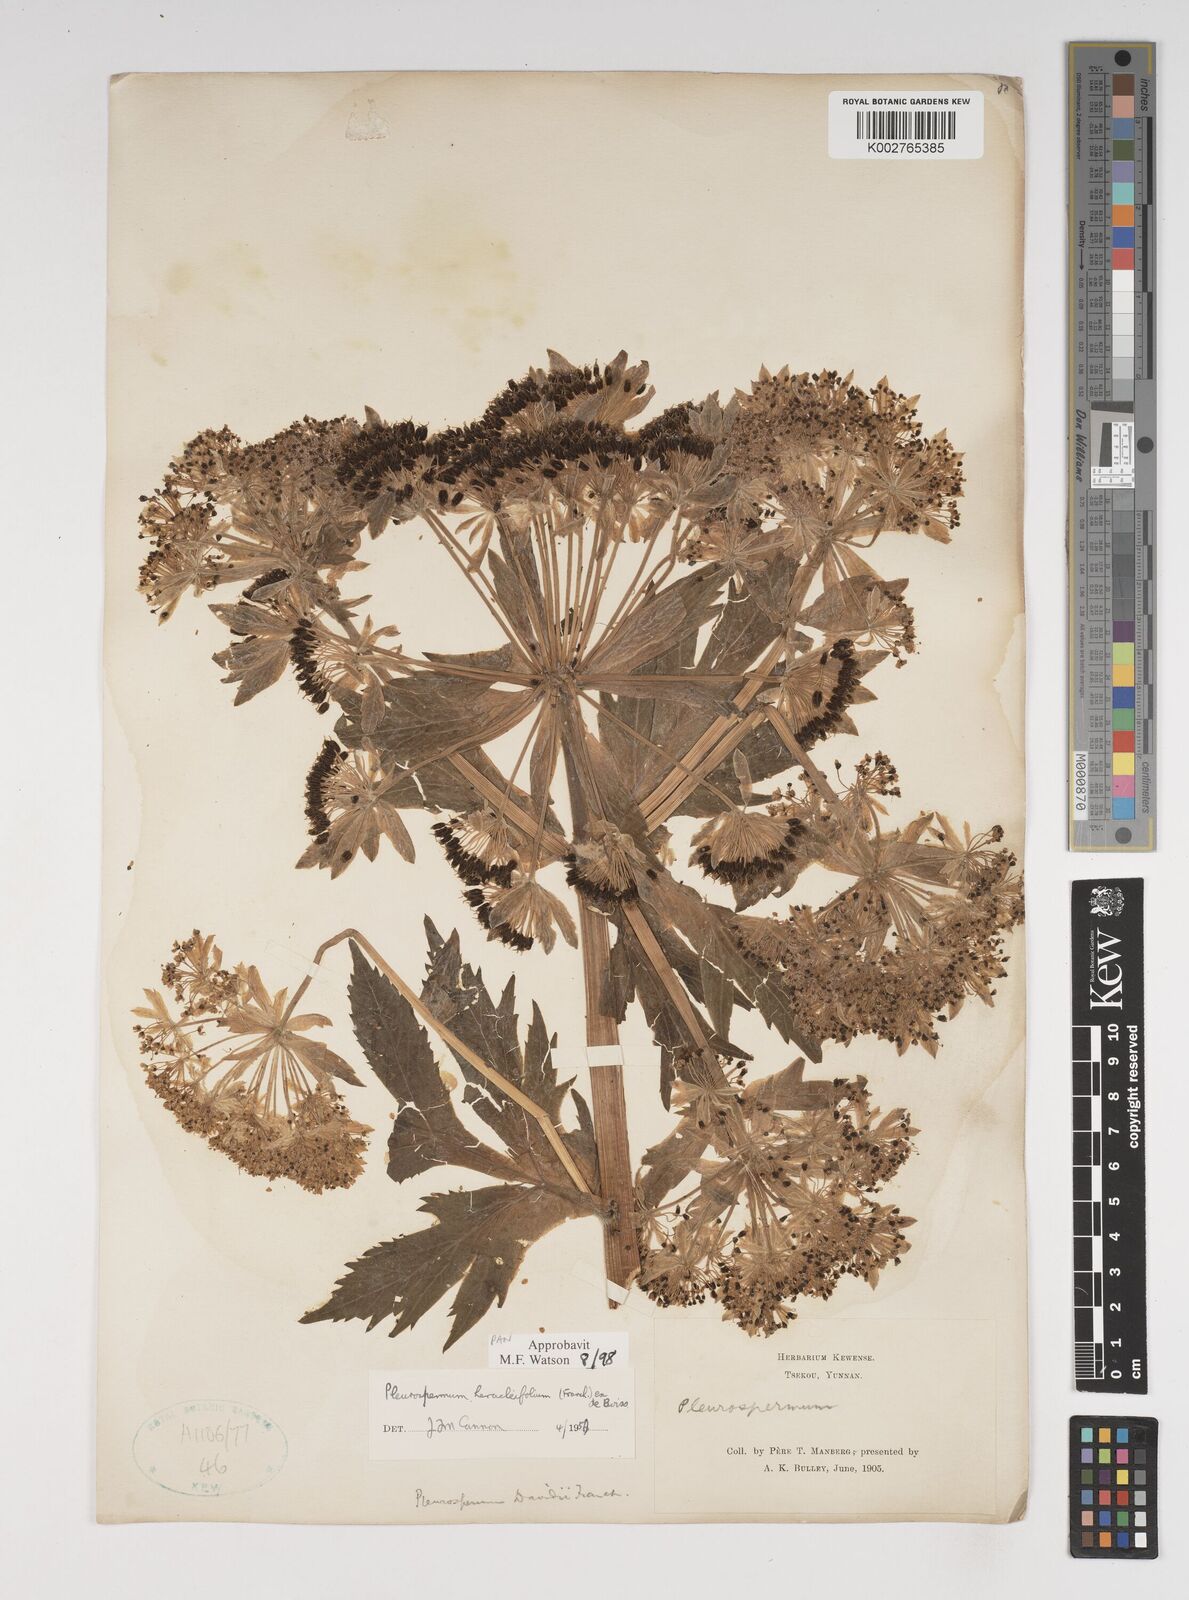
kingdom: Plantae
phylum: Tracheophyta
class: Magnoliopsida
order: Apiales
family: Apiaceae
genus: Hymenidium
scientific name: Hymenidium heracleifolium
